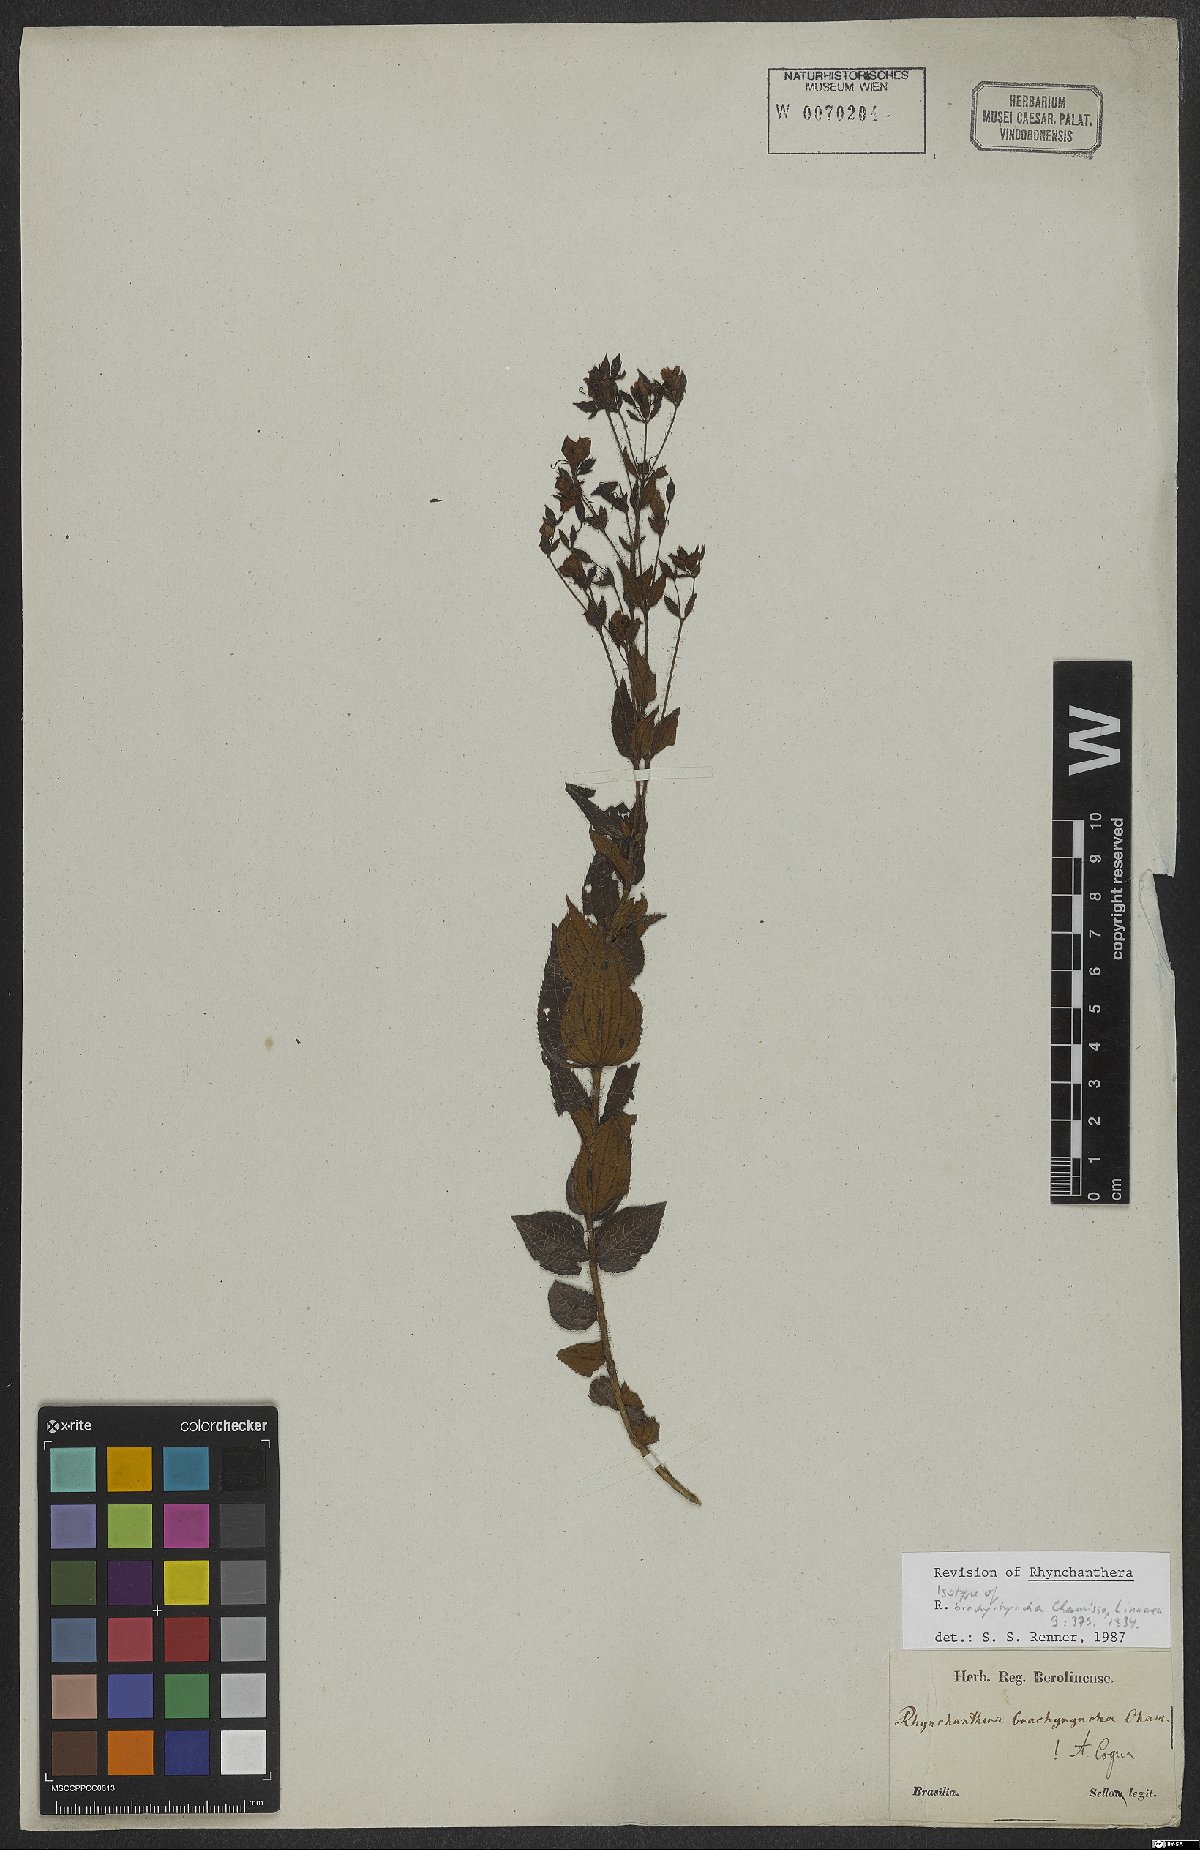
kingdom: Plantae
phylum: Tracheophyta
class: Magnoliopsida
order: Myrtales
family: Melastomataceae
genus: Rhynchanthera
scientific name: Rhynchanthera brachyrhyncha
